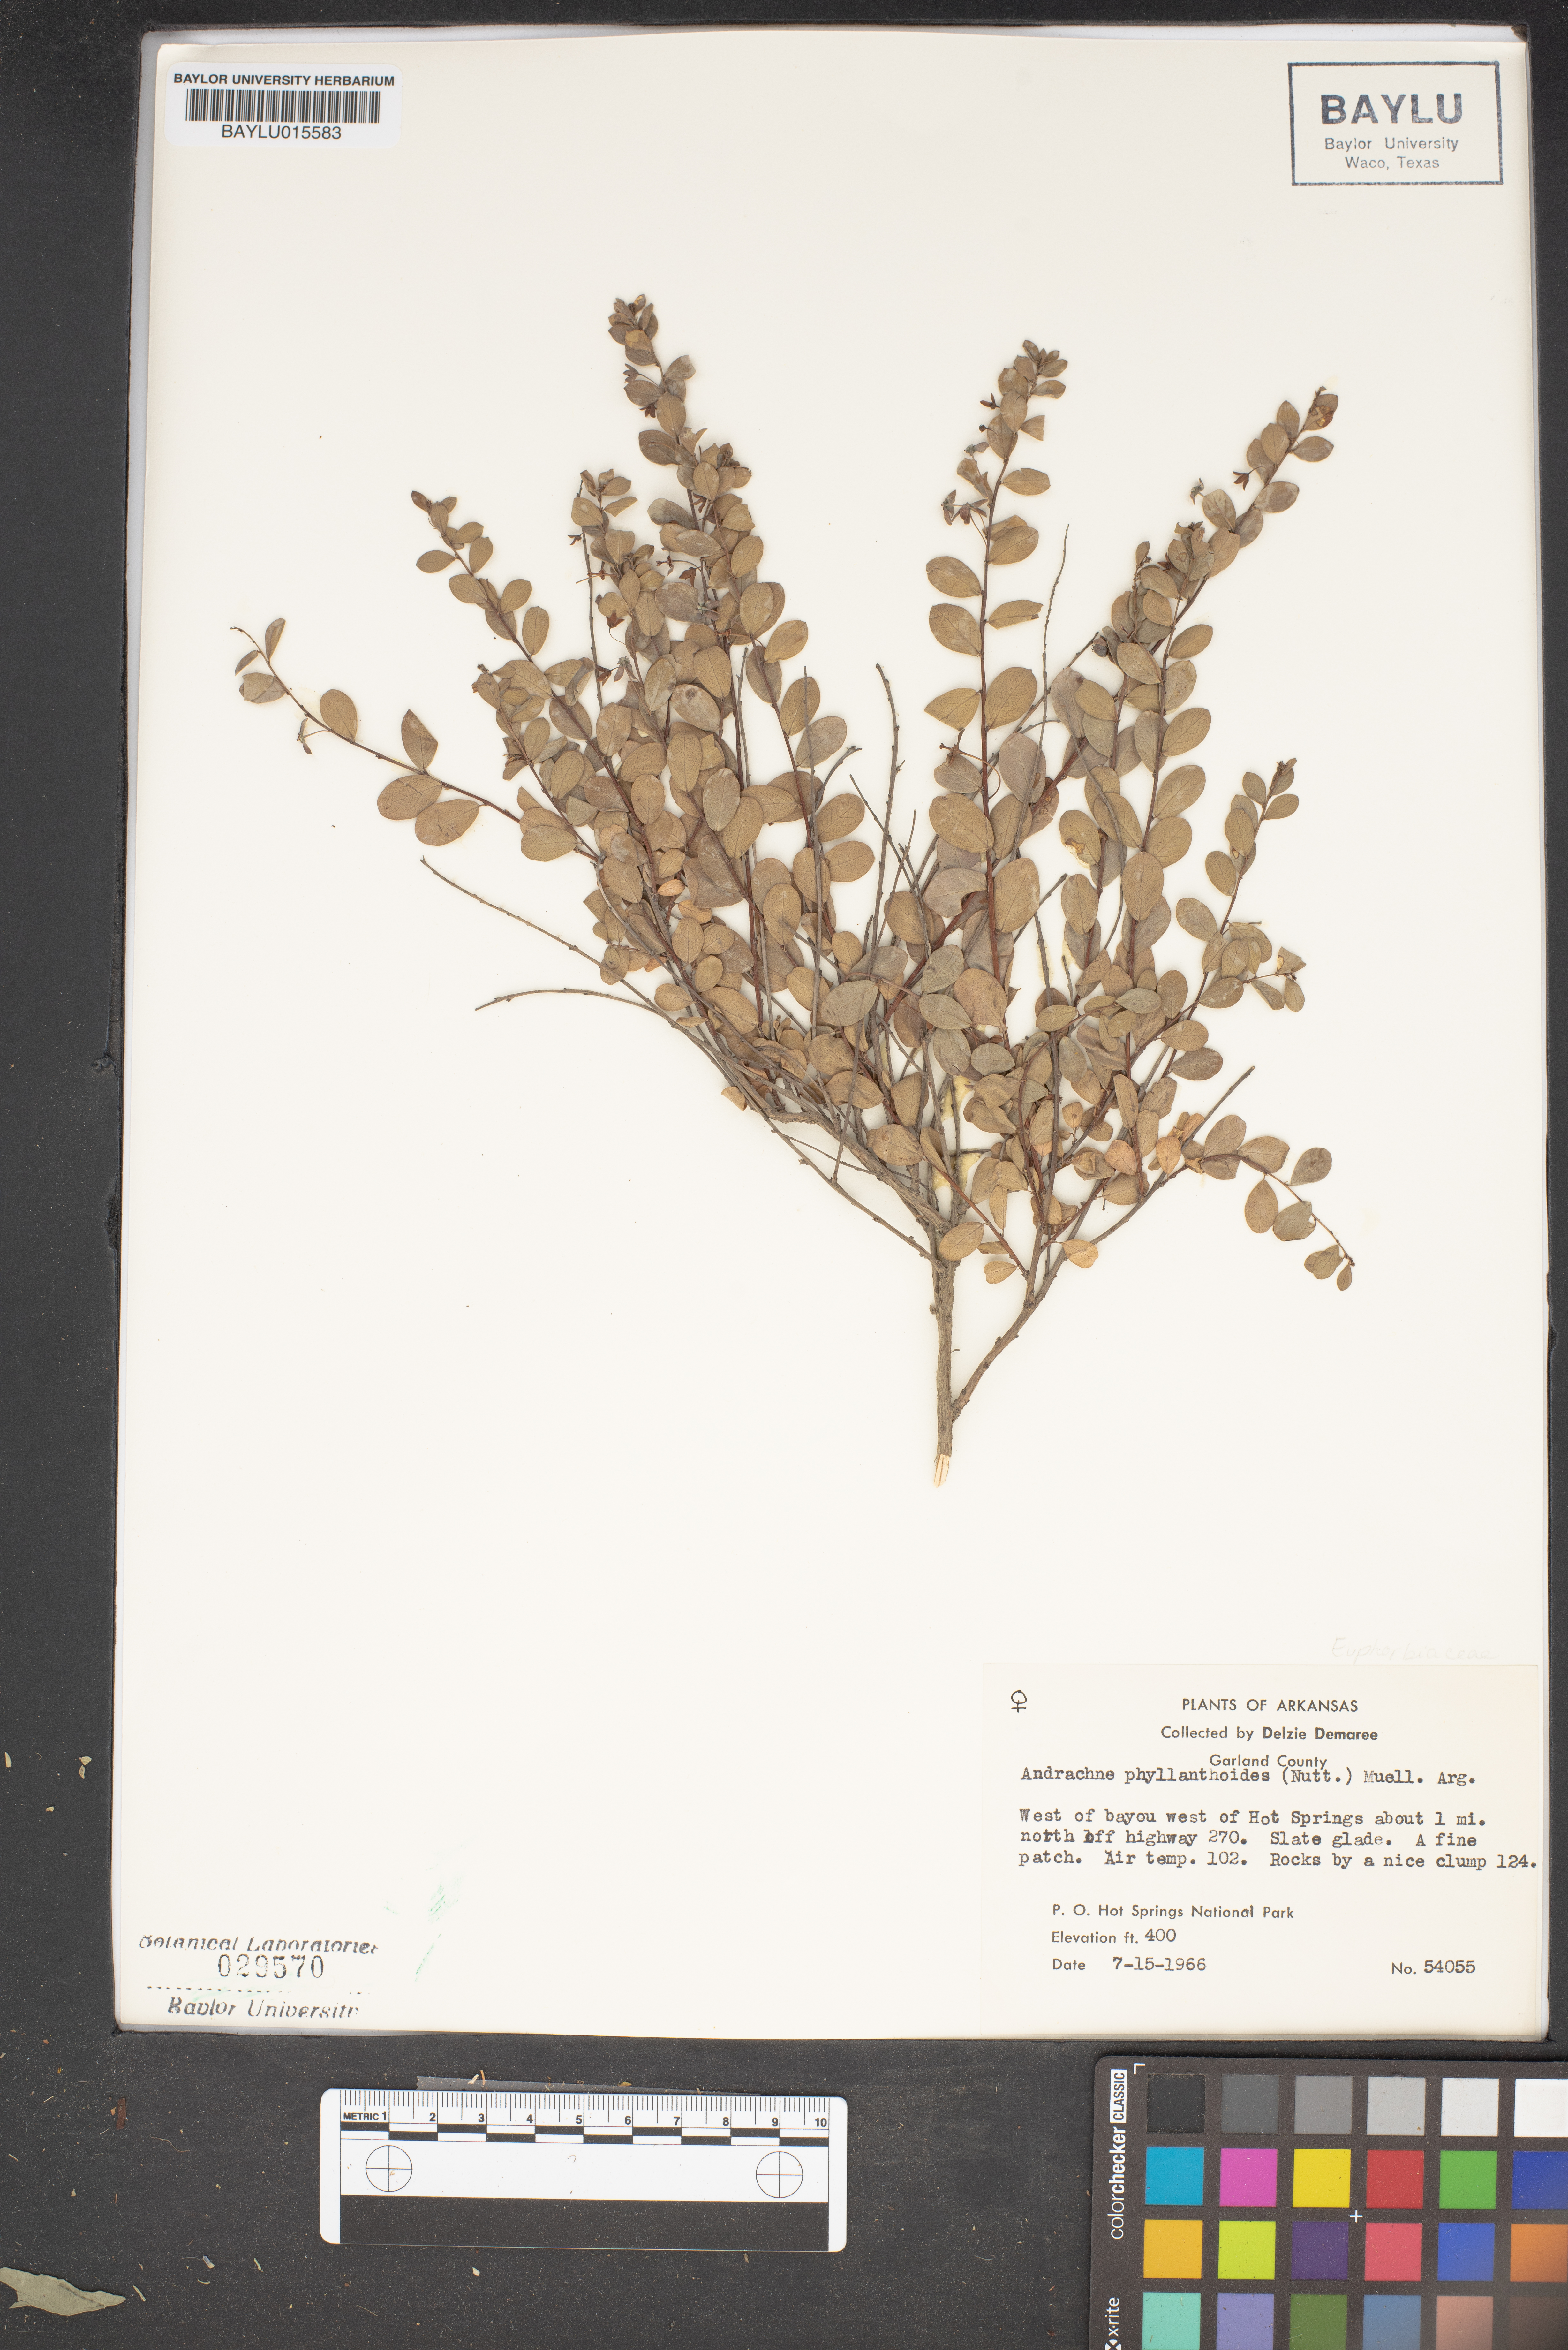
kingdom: Plantae
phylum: Tracheophyta
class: Magnoliopsida
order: Malpighiales
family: Phyllanthaceae
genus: Phyllanthopsis
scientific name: Phyllanthopsis phyllanthoides
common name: Missouri maidenbush
